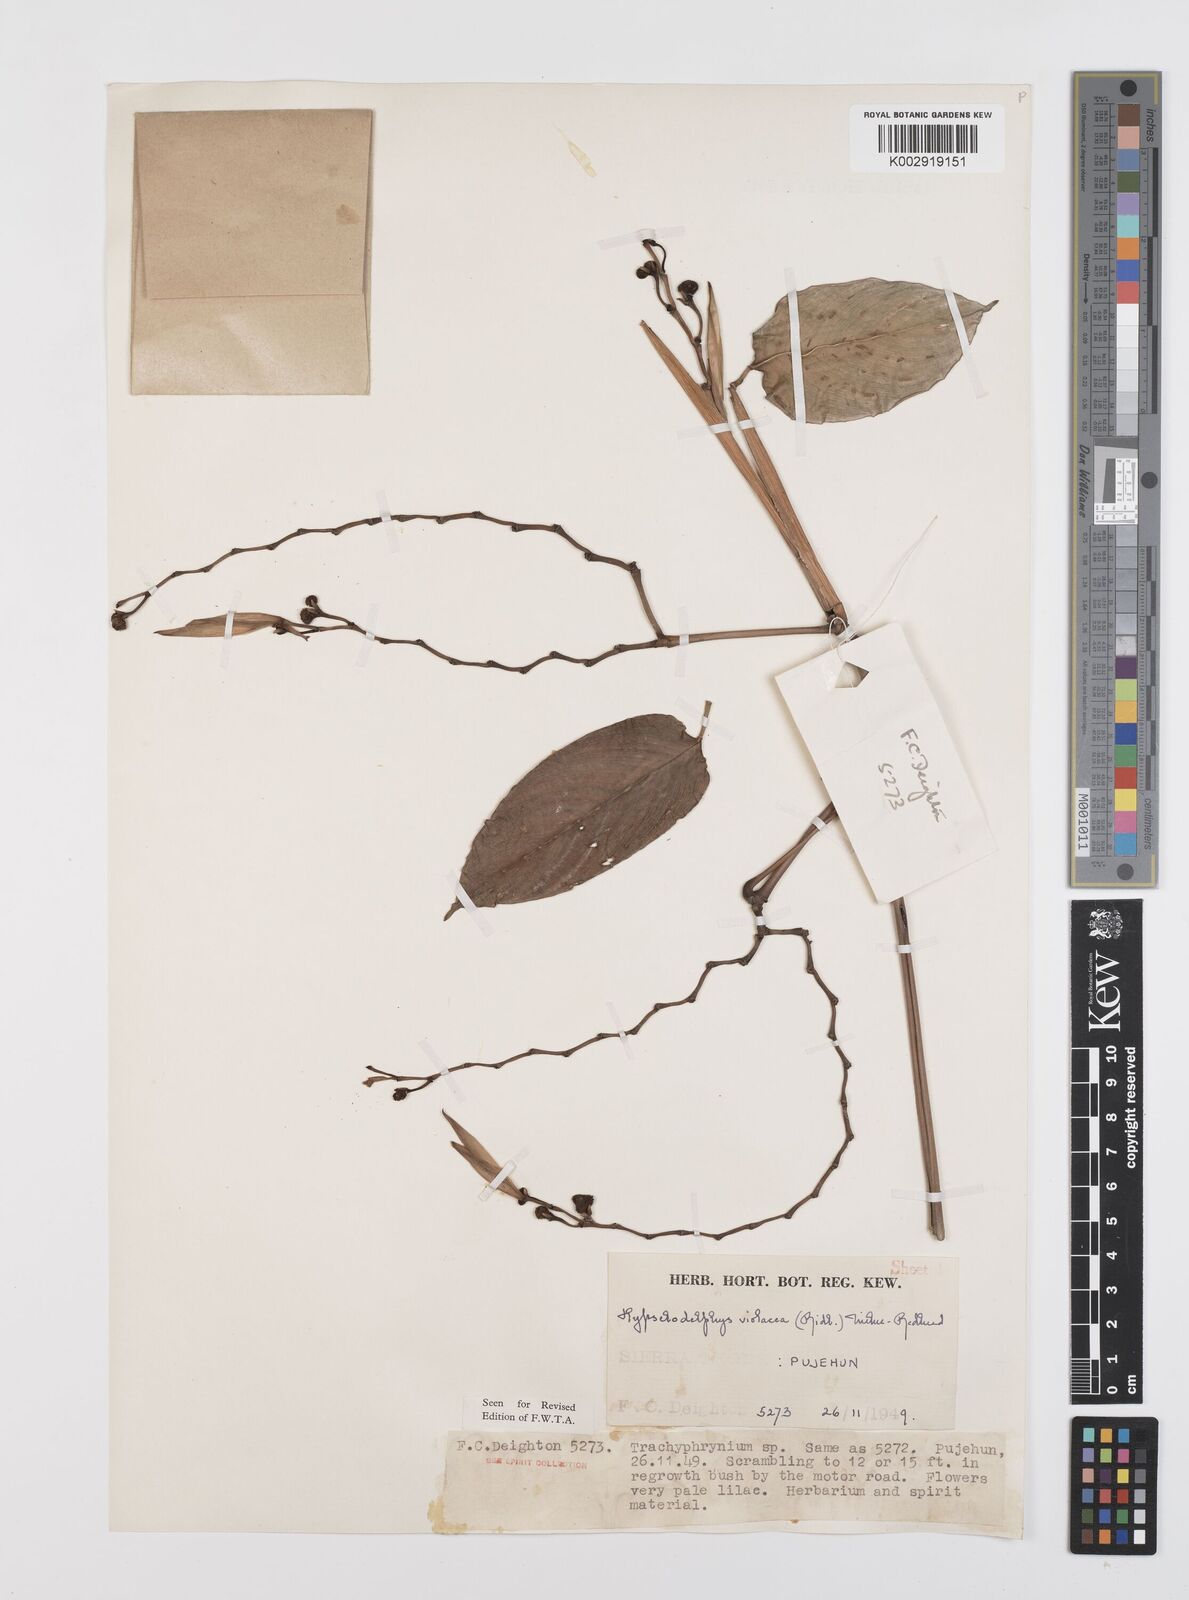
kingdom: Plantae
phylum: Tracheophyta
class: Liliopsida
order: Zingiberales
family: Marantaceae
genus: Hypselodelphys
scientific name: Hypselodelphys violacea
